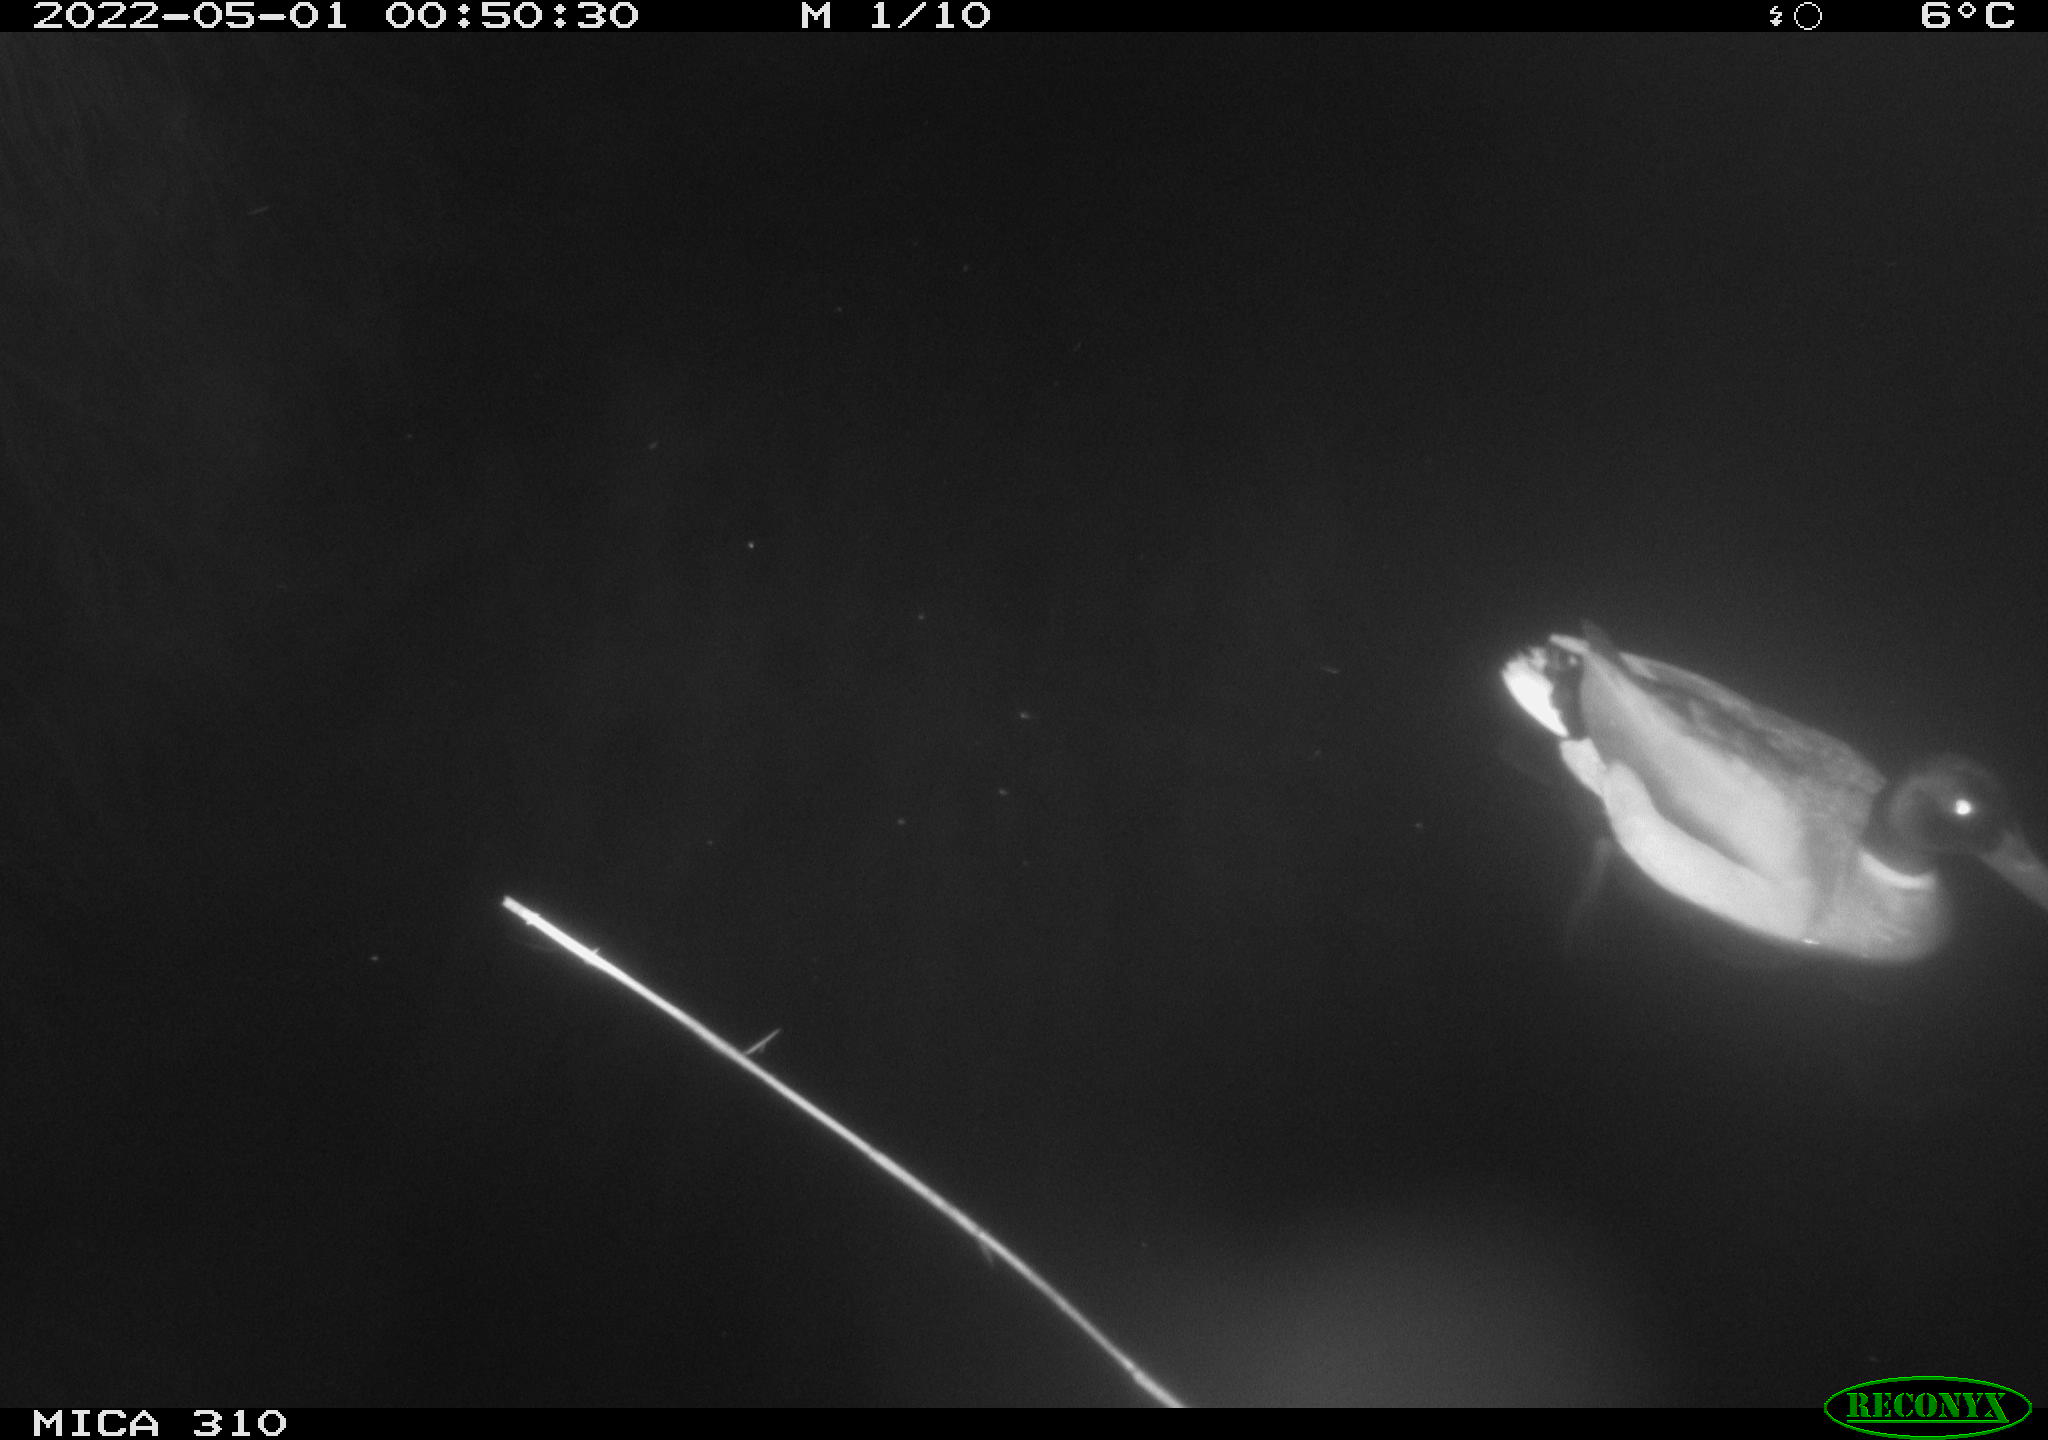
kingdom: Animalia
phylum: Chordata
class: Aves
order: Anseriformes
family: Anatidae
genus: Anas
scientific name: Anas platyrhynchos
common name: Mallard
